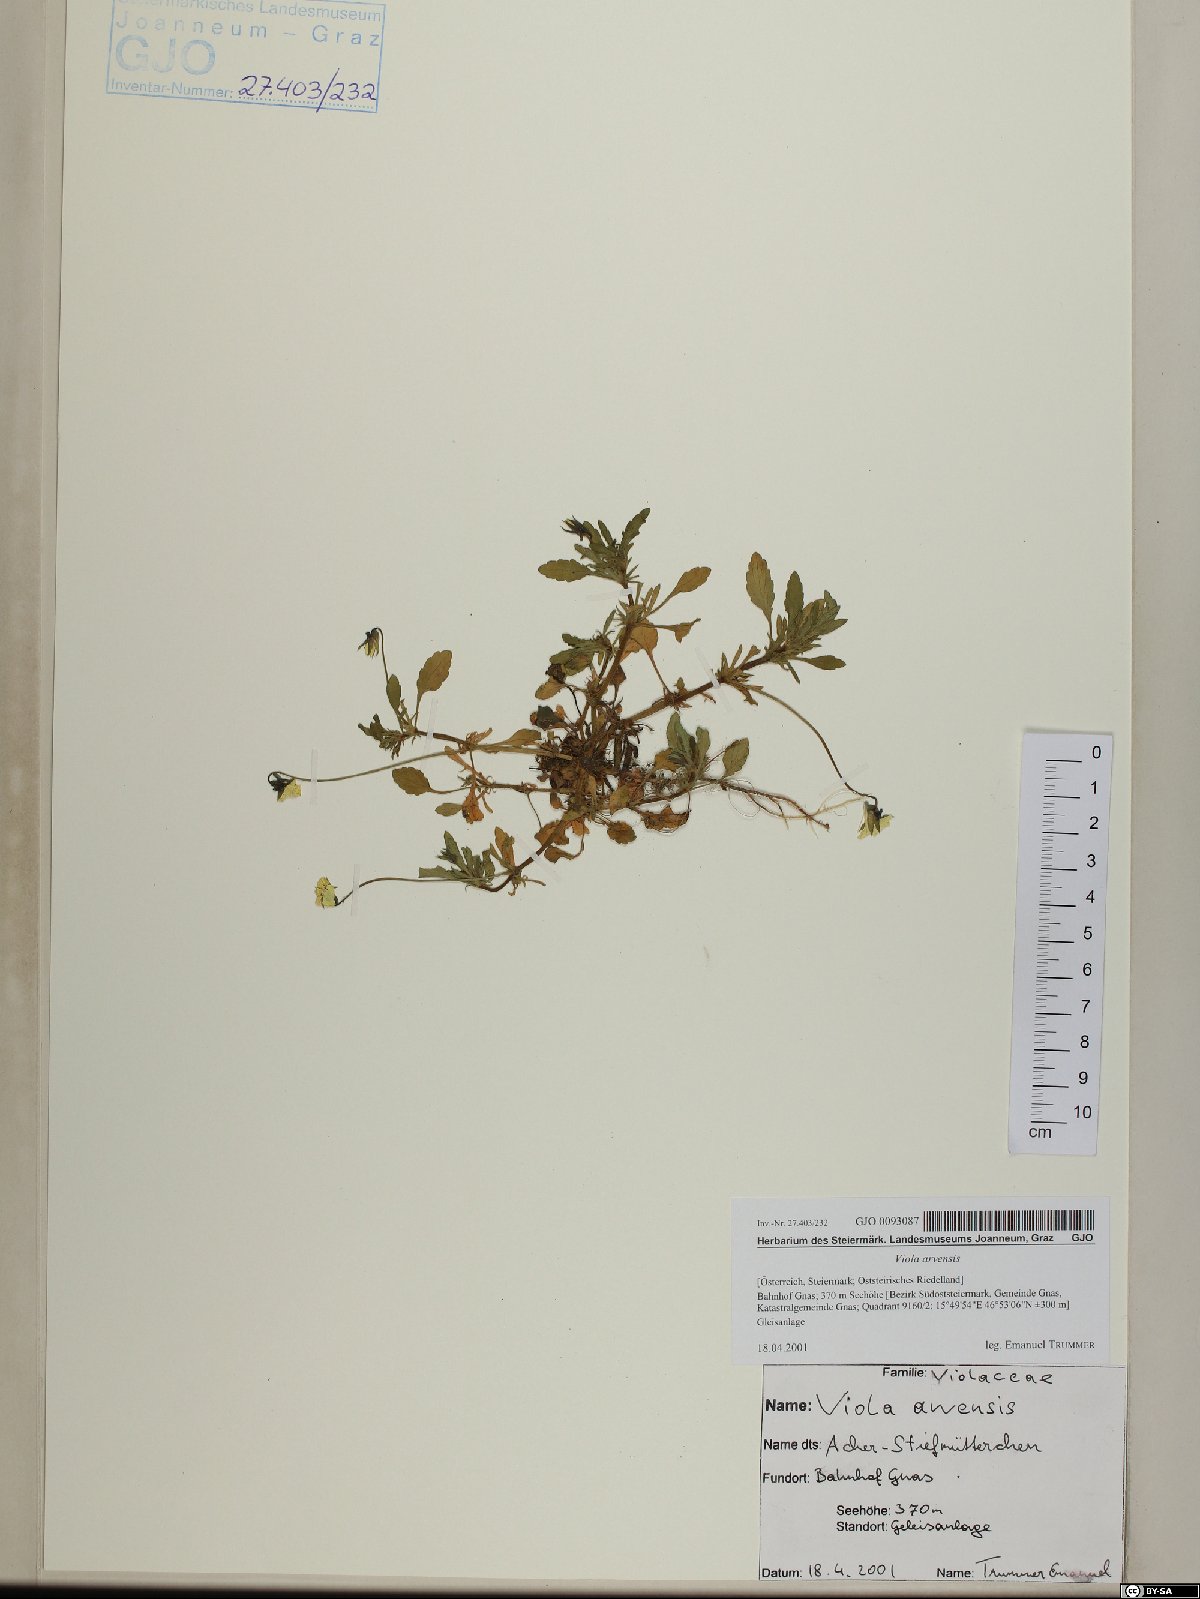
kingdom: Plantae
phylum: Tracheophyta
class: Magnoliopsida
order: Malpighiales
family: Violaceae
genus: Viola
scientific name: Viola arvensis
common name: Field pansy
